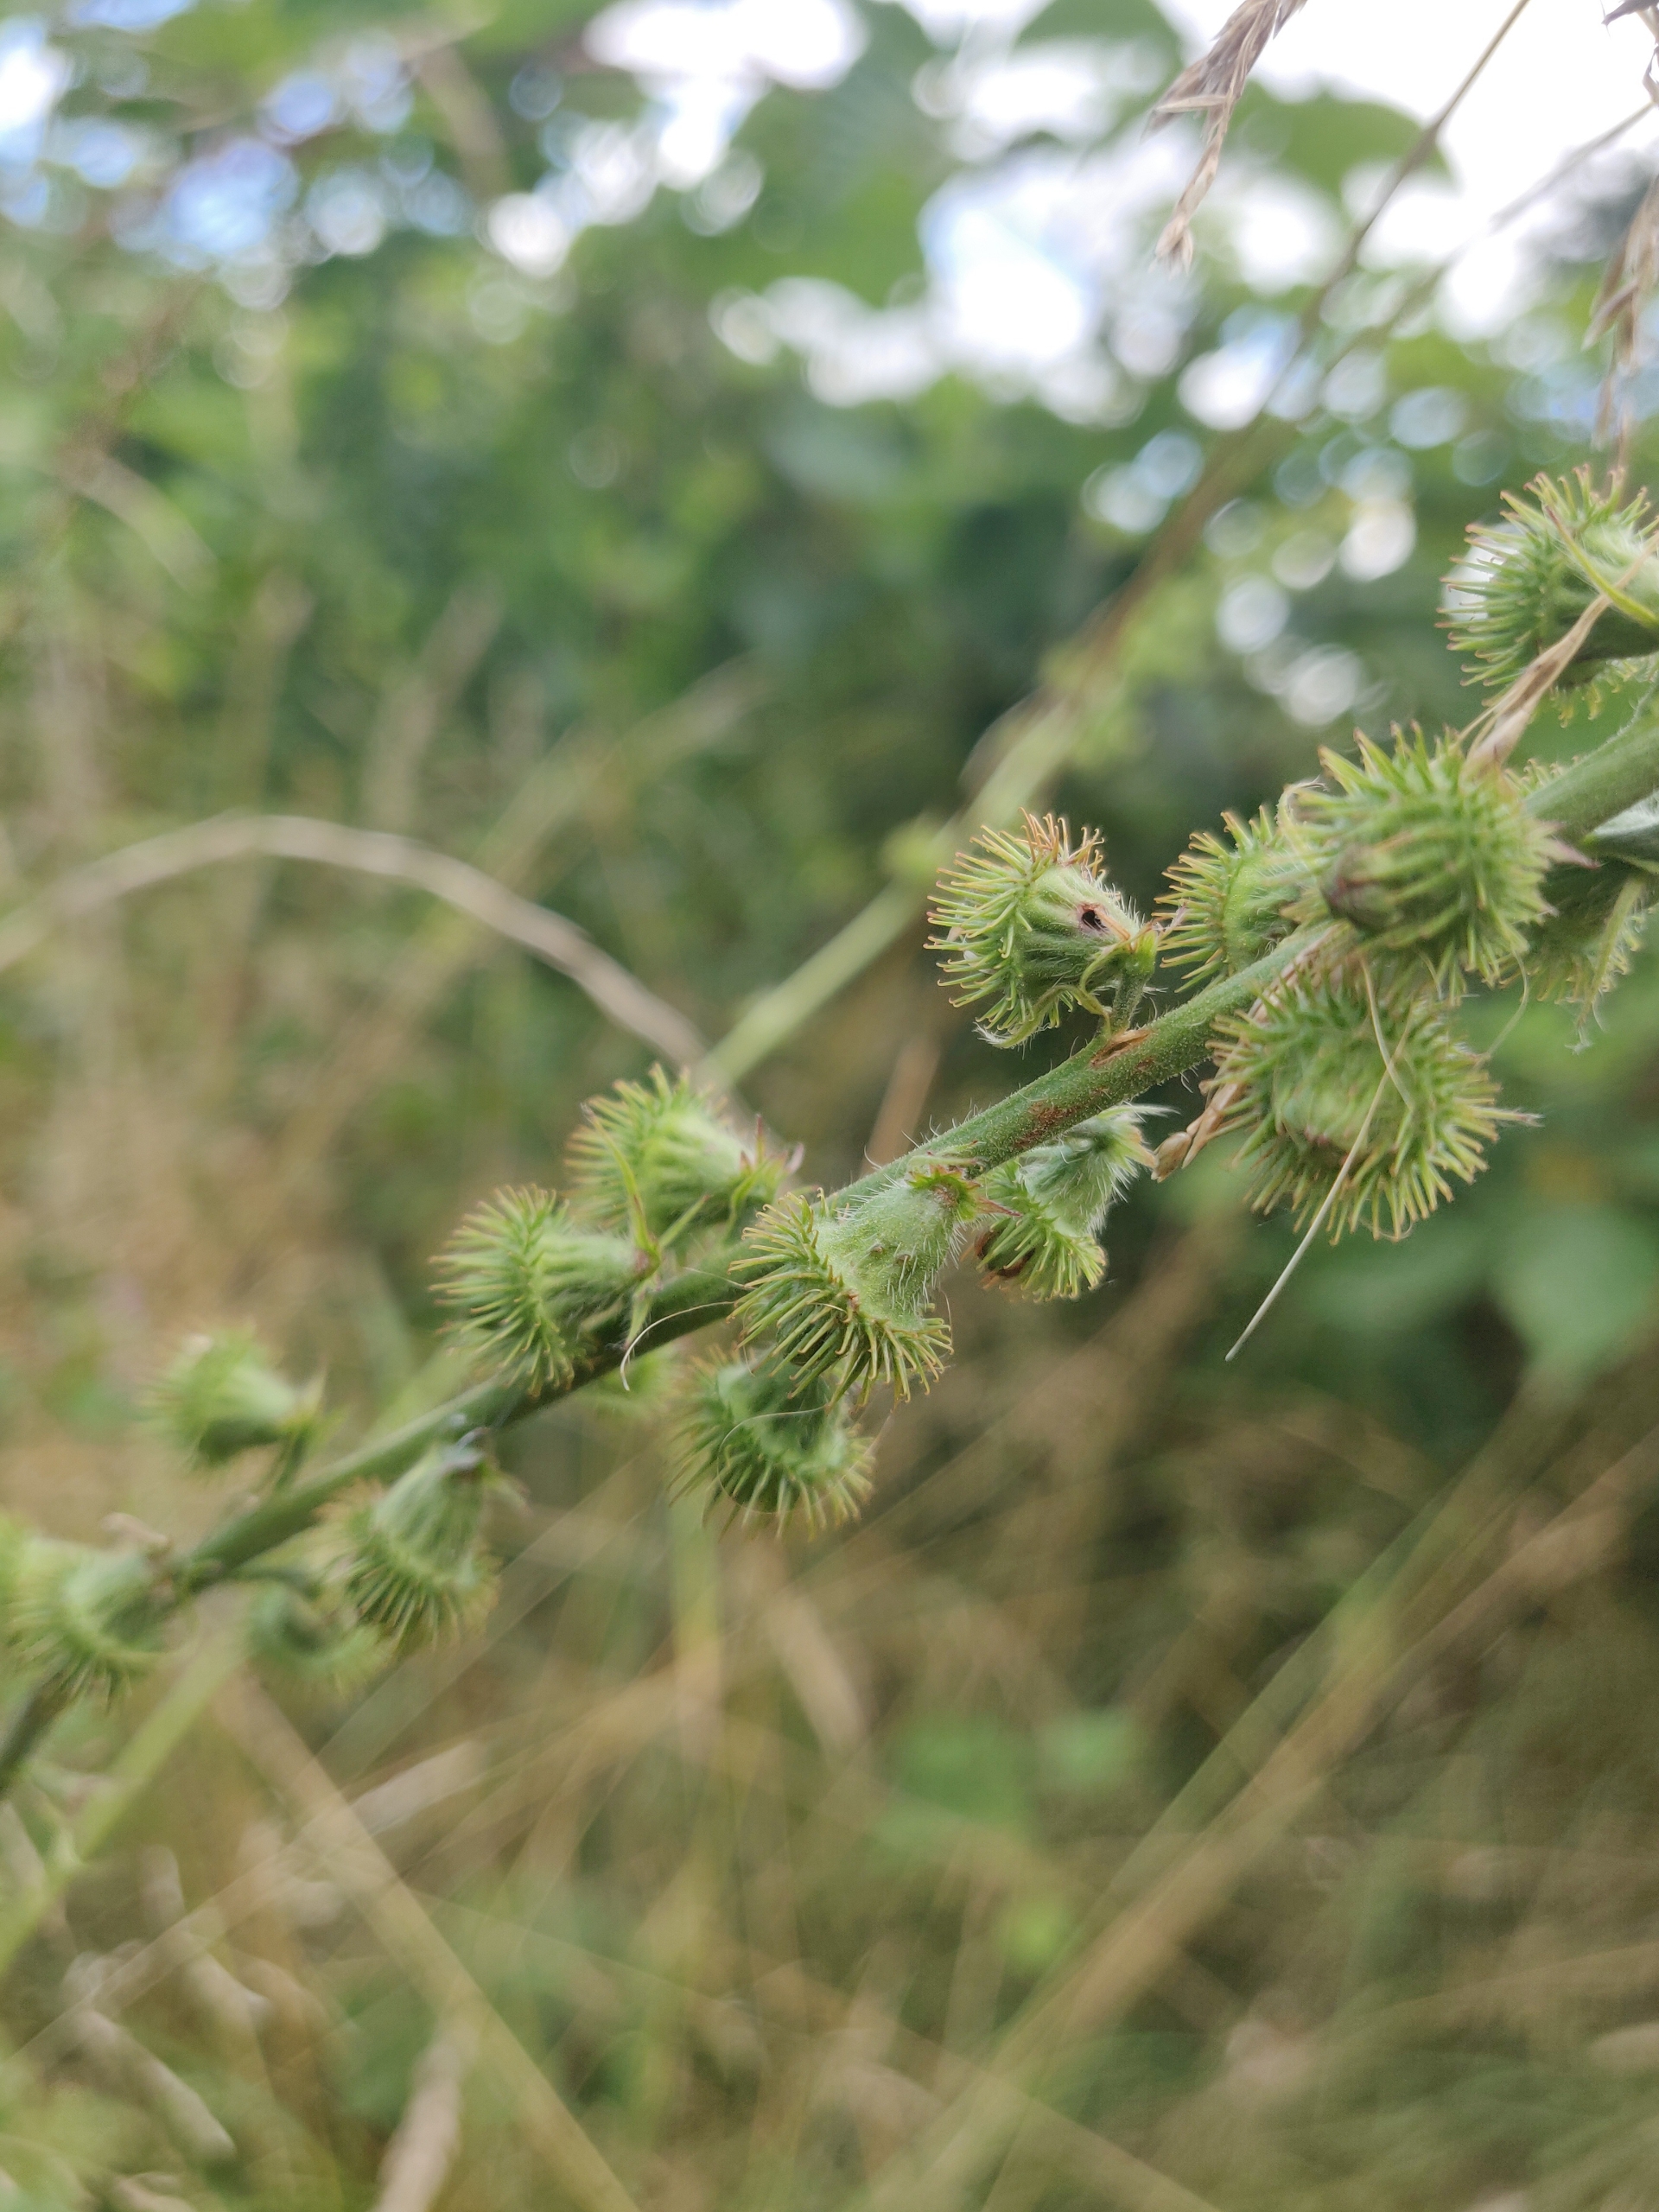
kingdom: Plantae
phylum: Tracheophyta
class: Magnoliopsida
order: Rosales
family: Rosaceae
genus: Agrimonia
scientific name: Agrimonia procera
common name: Vellugtende agermåne
